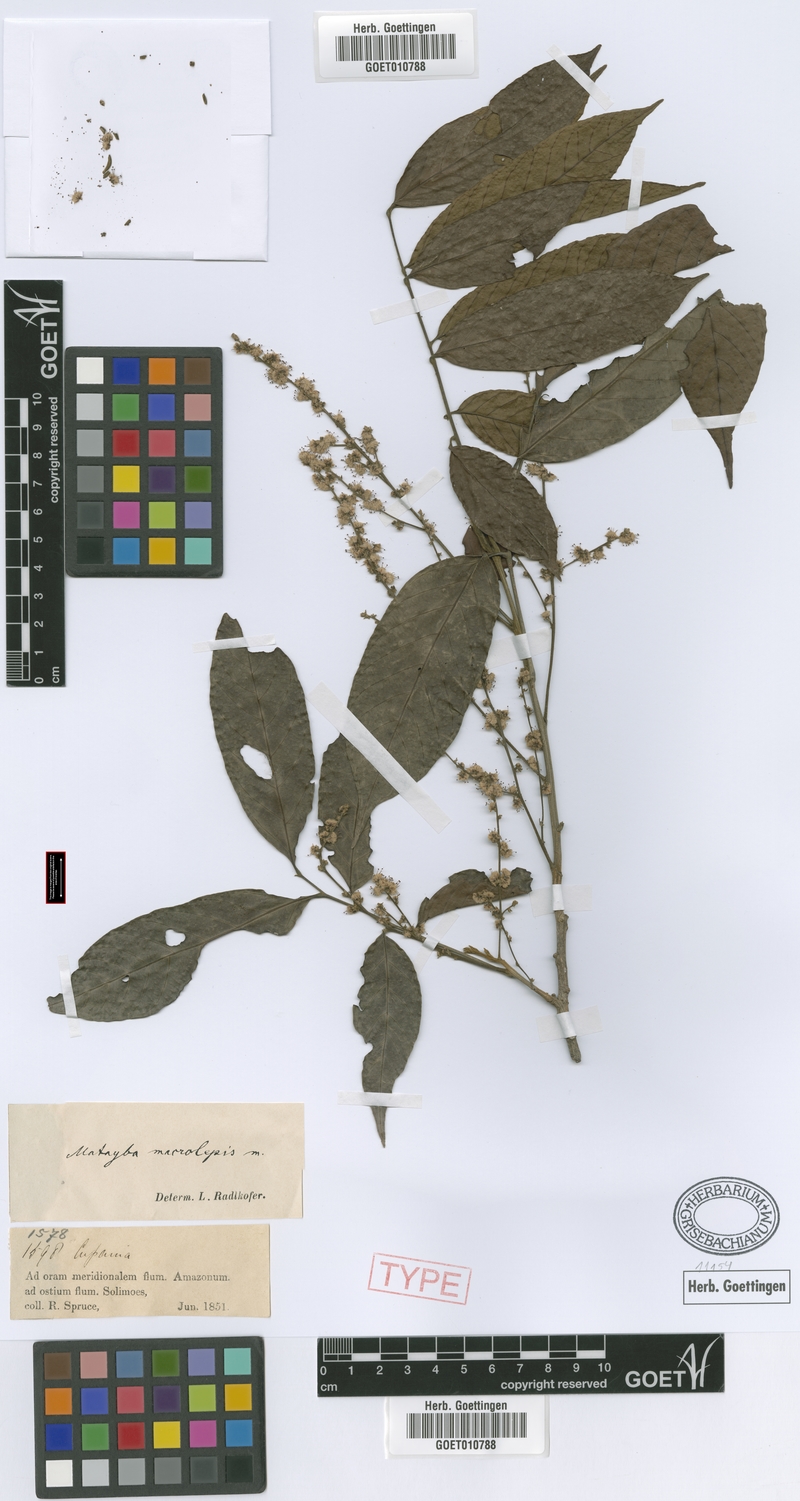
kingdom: Plantae
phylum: Tracheophyta
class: Magnoliopsida
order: Sapindales
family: Sapindaceae
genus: Cupania
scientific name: Cupania macrostylis
